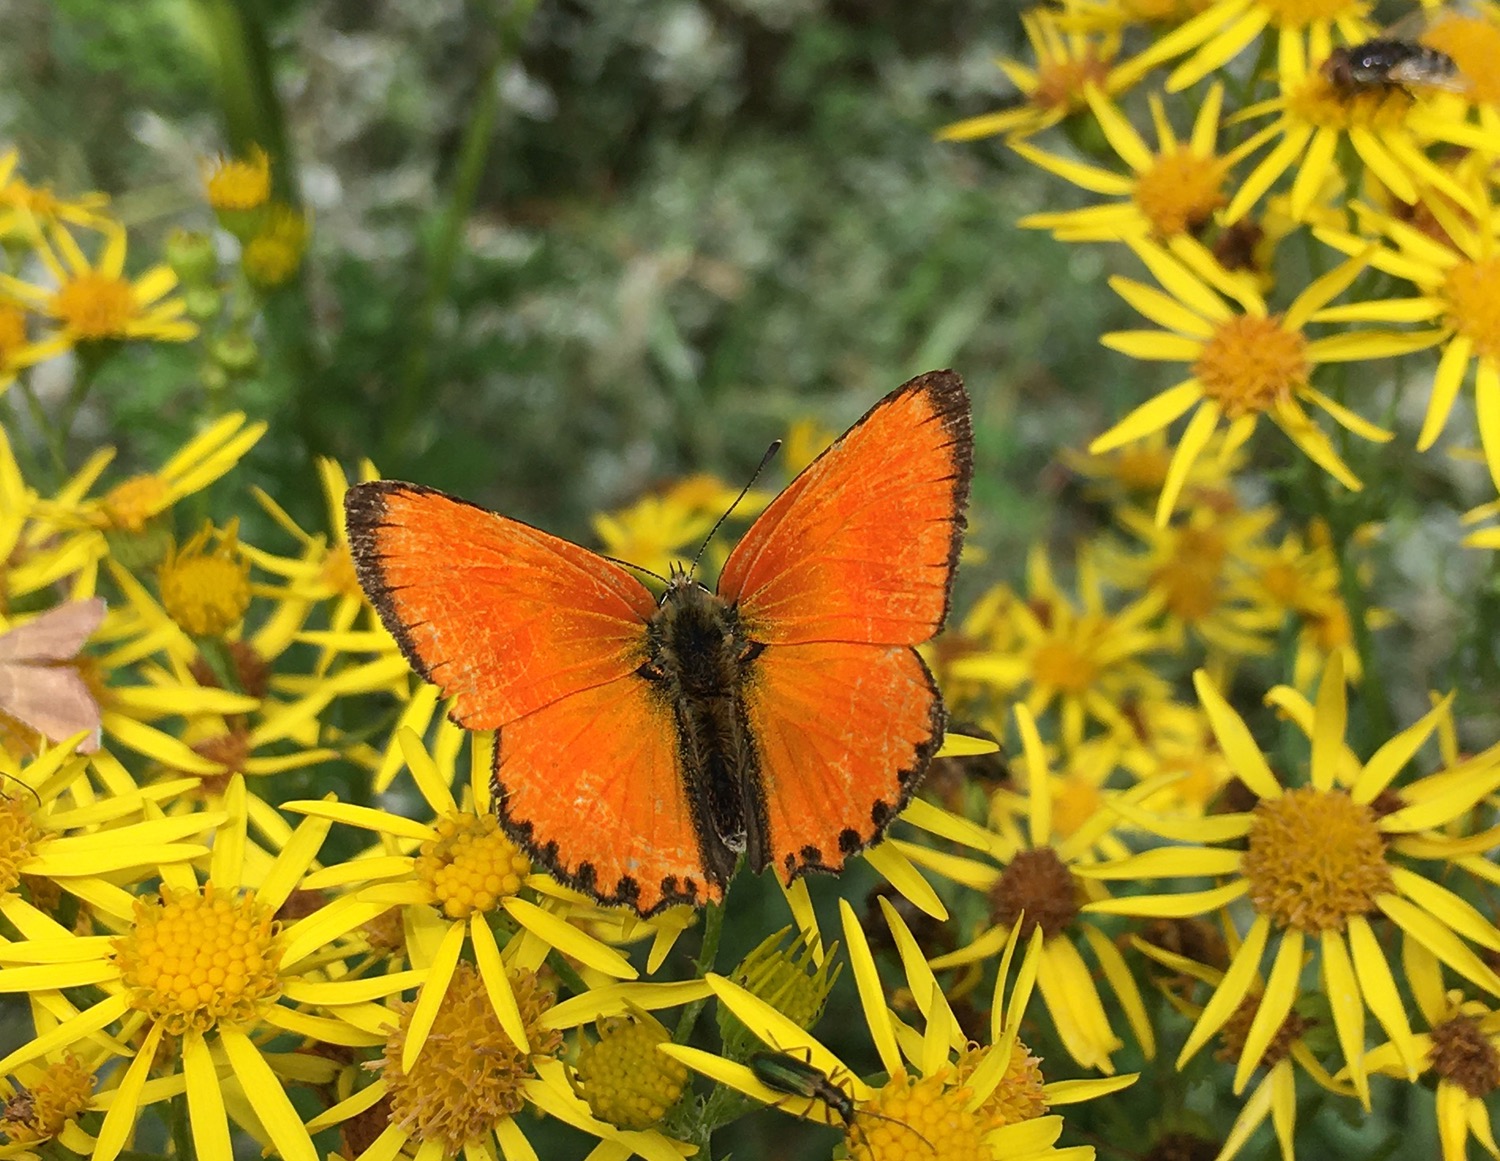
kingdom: Animalia
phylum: Arthropoda
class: Insecta
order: Lepidoptera
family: Lycaenidae
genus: Lycaena
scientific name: Lycaena virgaureae
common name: Dukatsommerfugl
